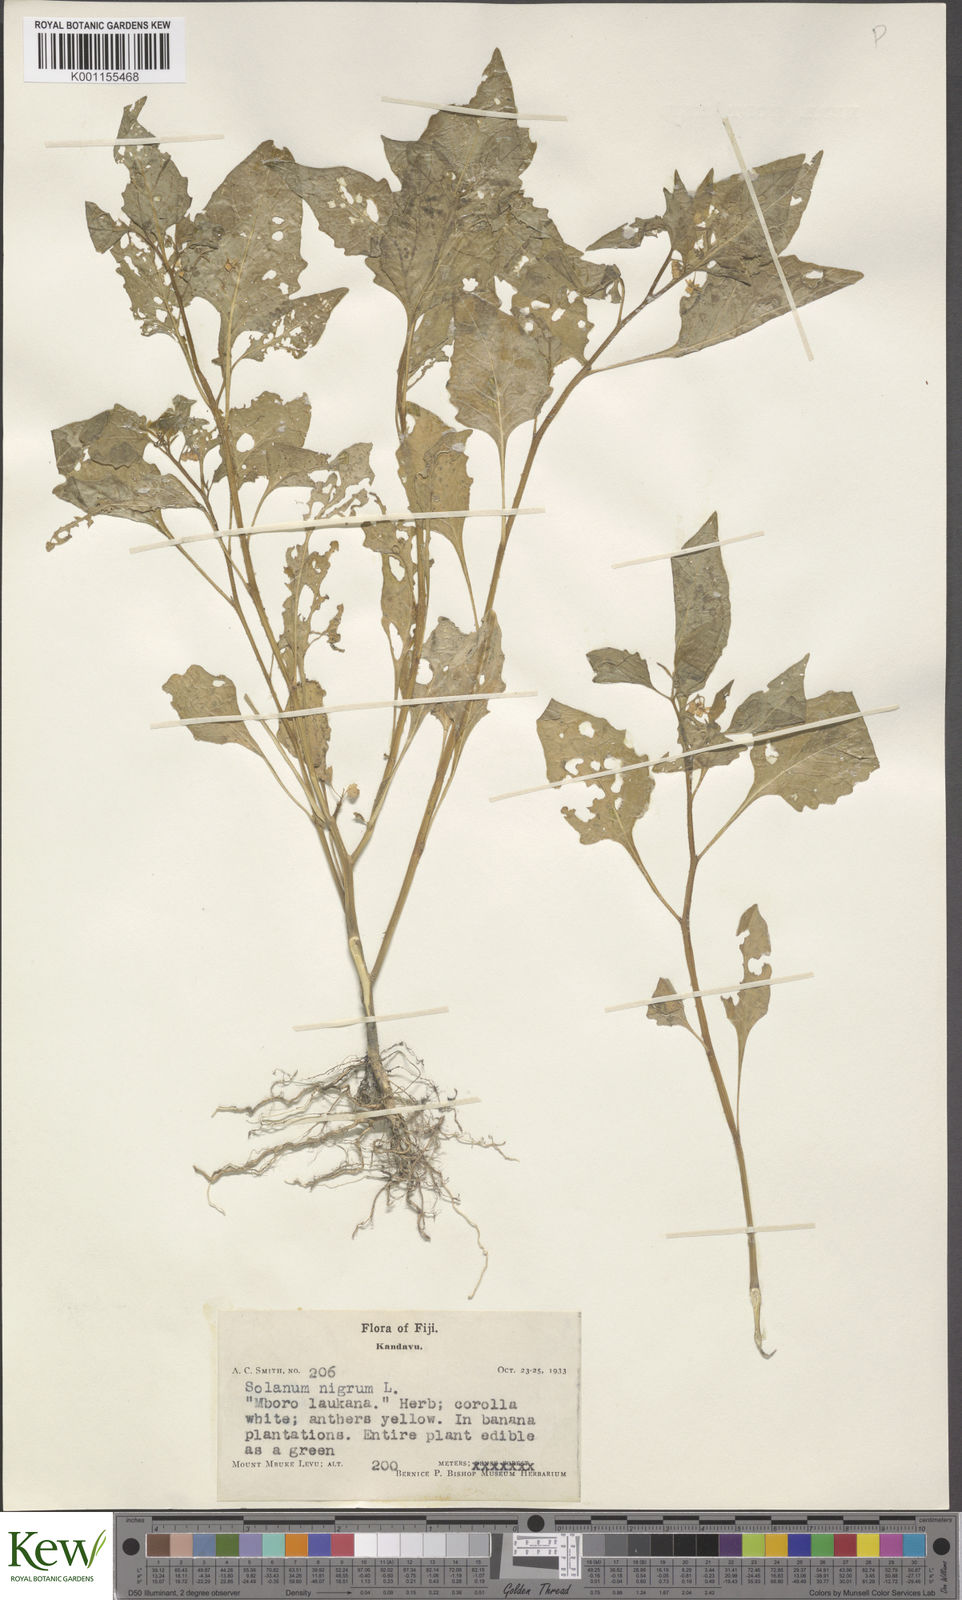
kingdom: Plantae
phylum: Tracheophyta
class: Magnoliopsida
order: Solanales
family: Solanaceae
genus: Solanum
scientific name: Solanum
